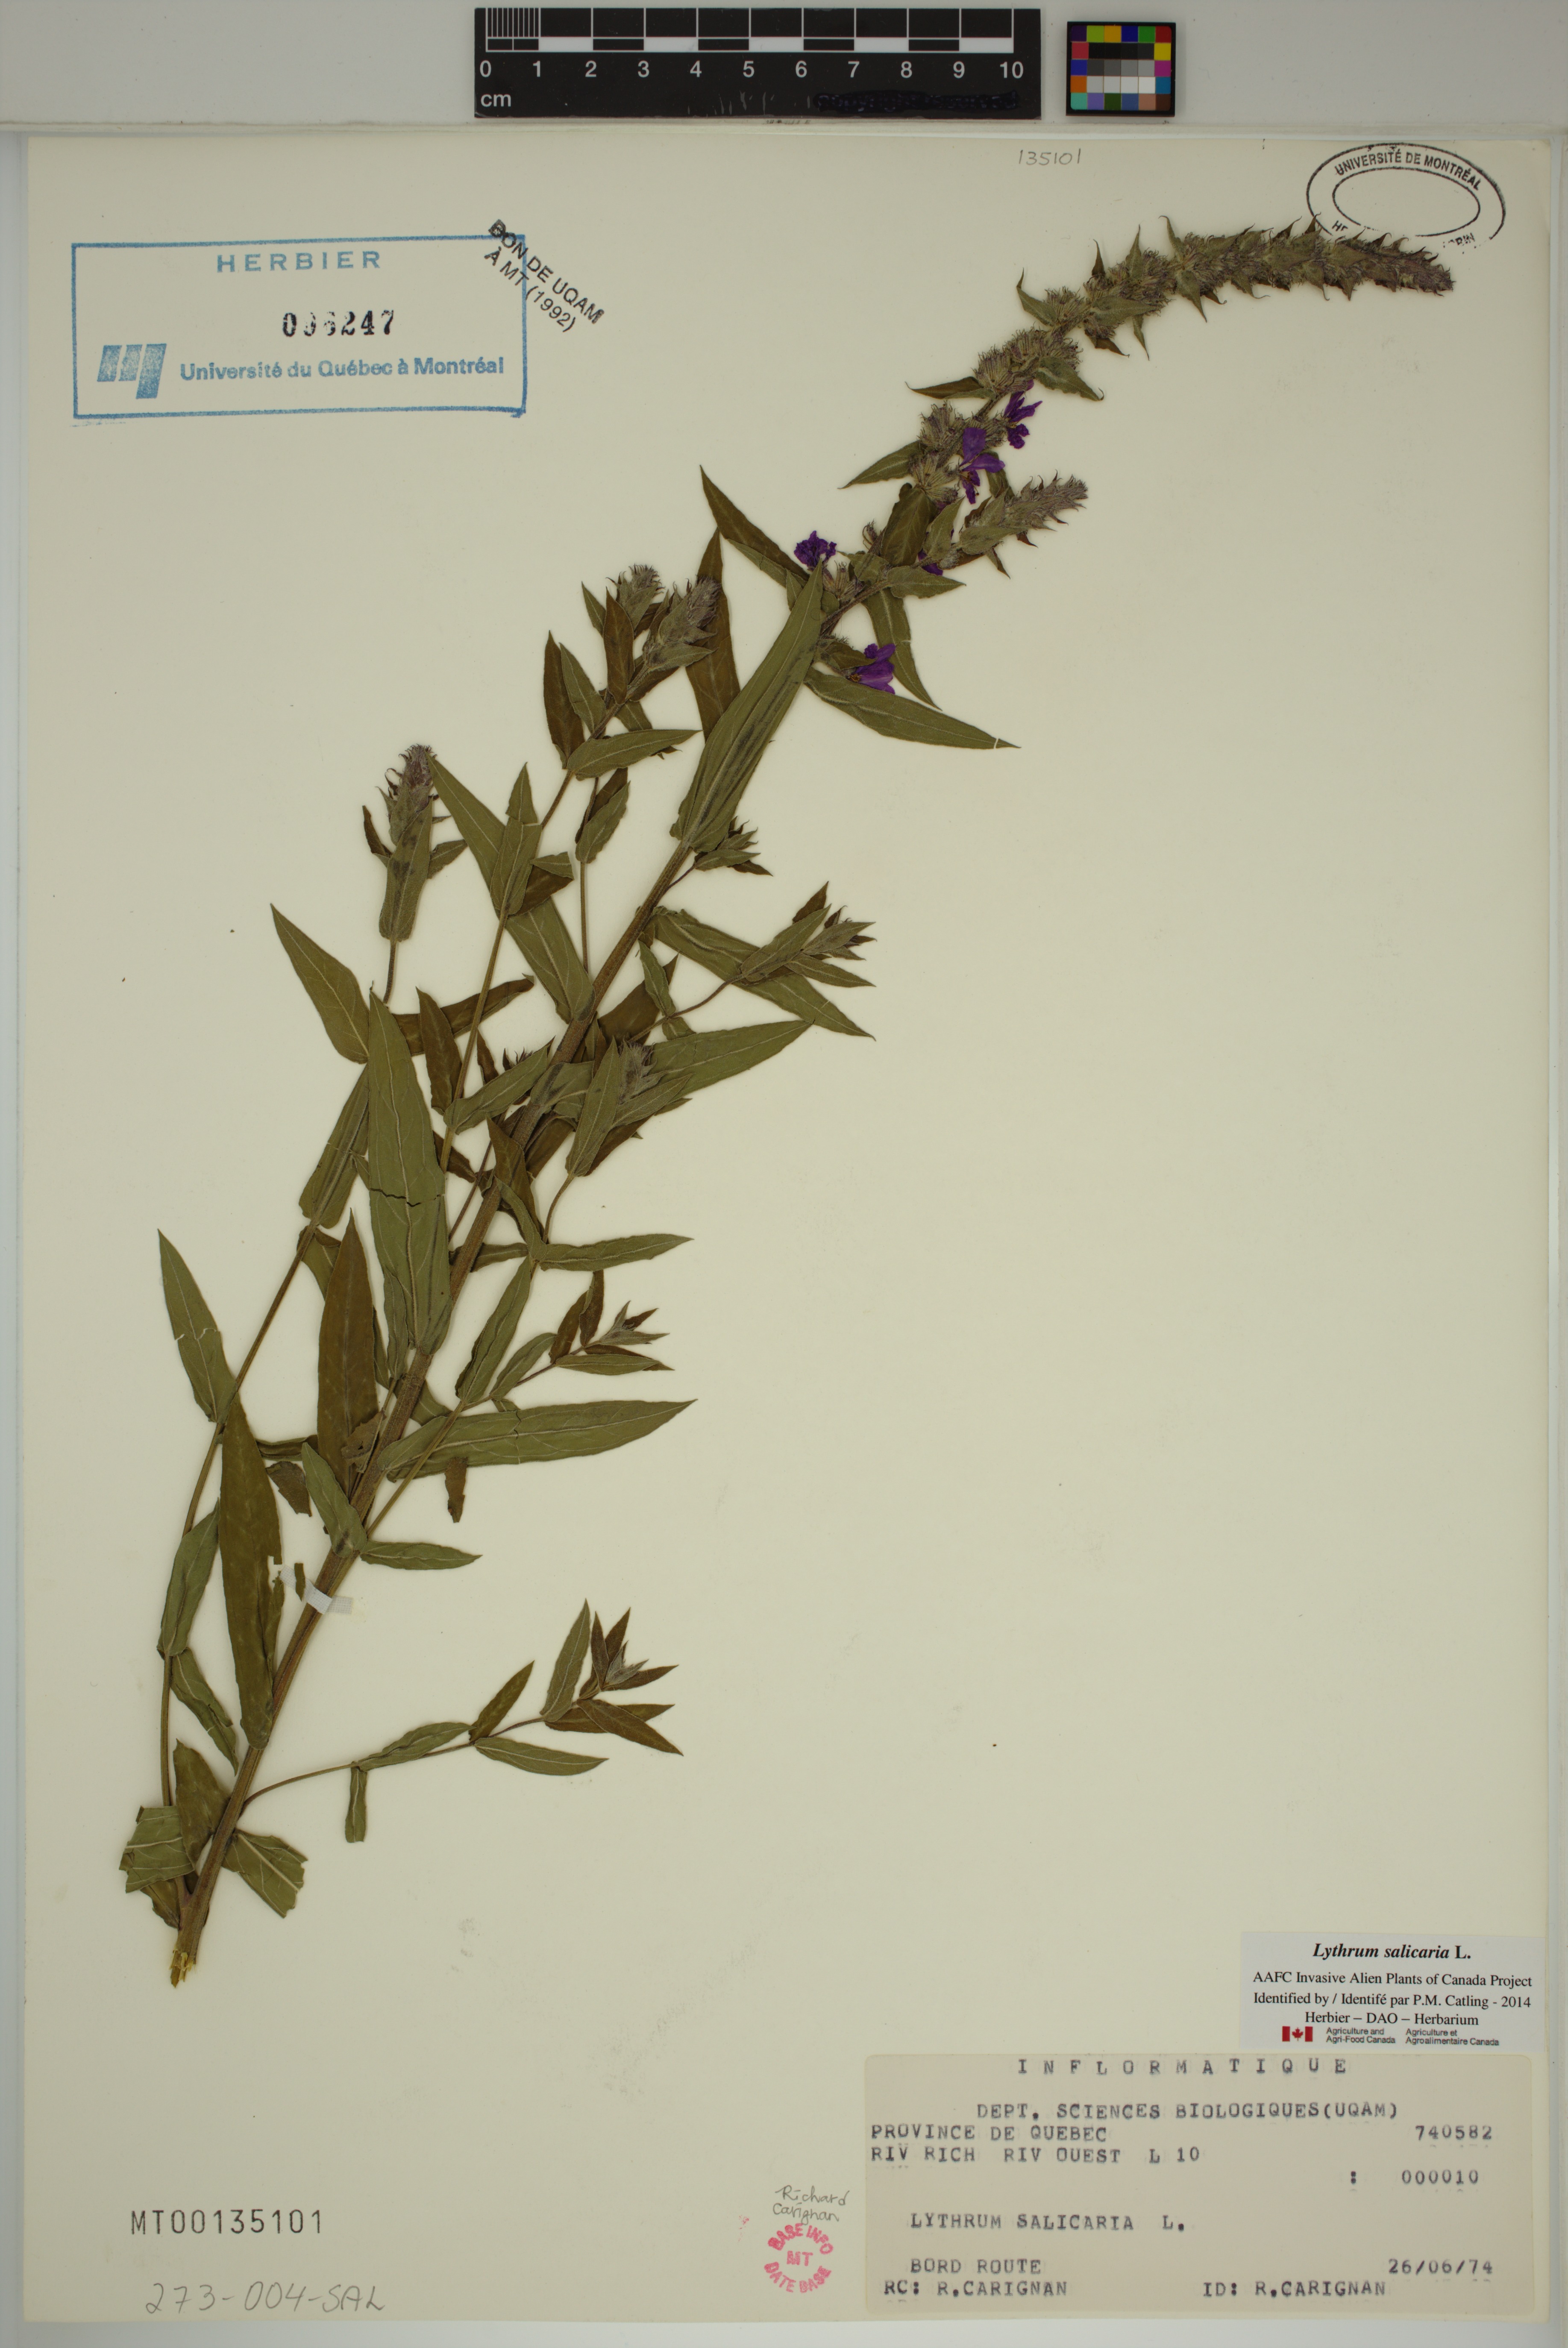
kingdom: Plantae
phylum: Tracheophyta
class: Magnoliopsida
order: Myrtales
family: Lythraceae
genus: Lythrum
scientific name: Lythrum salicaria
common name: Purple loosestrife
